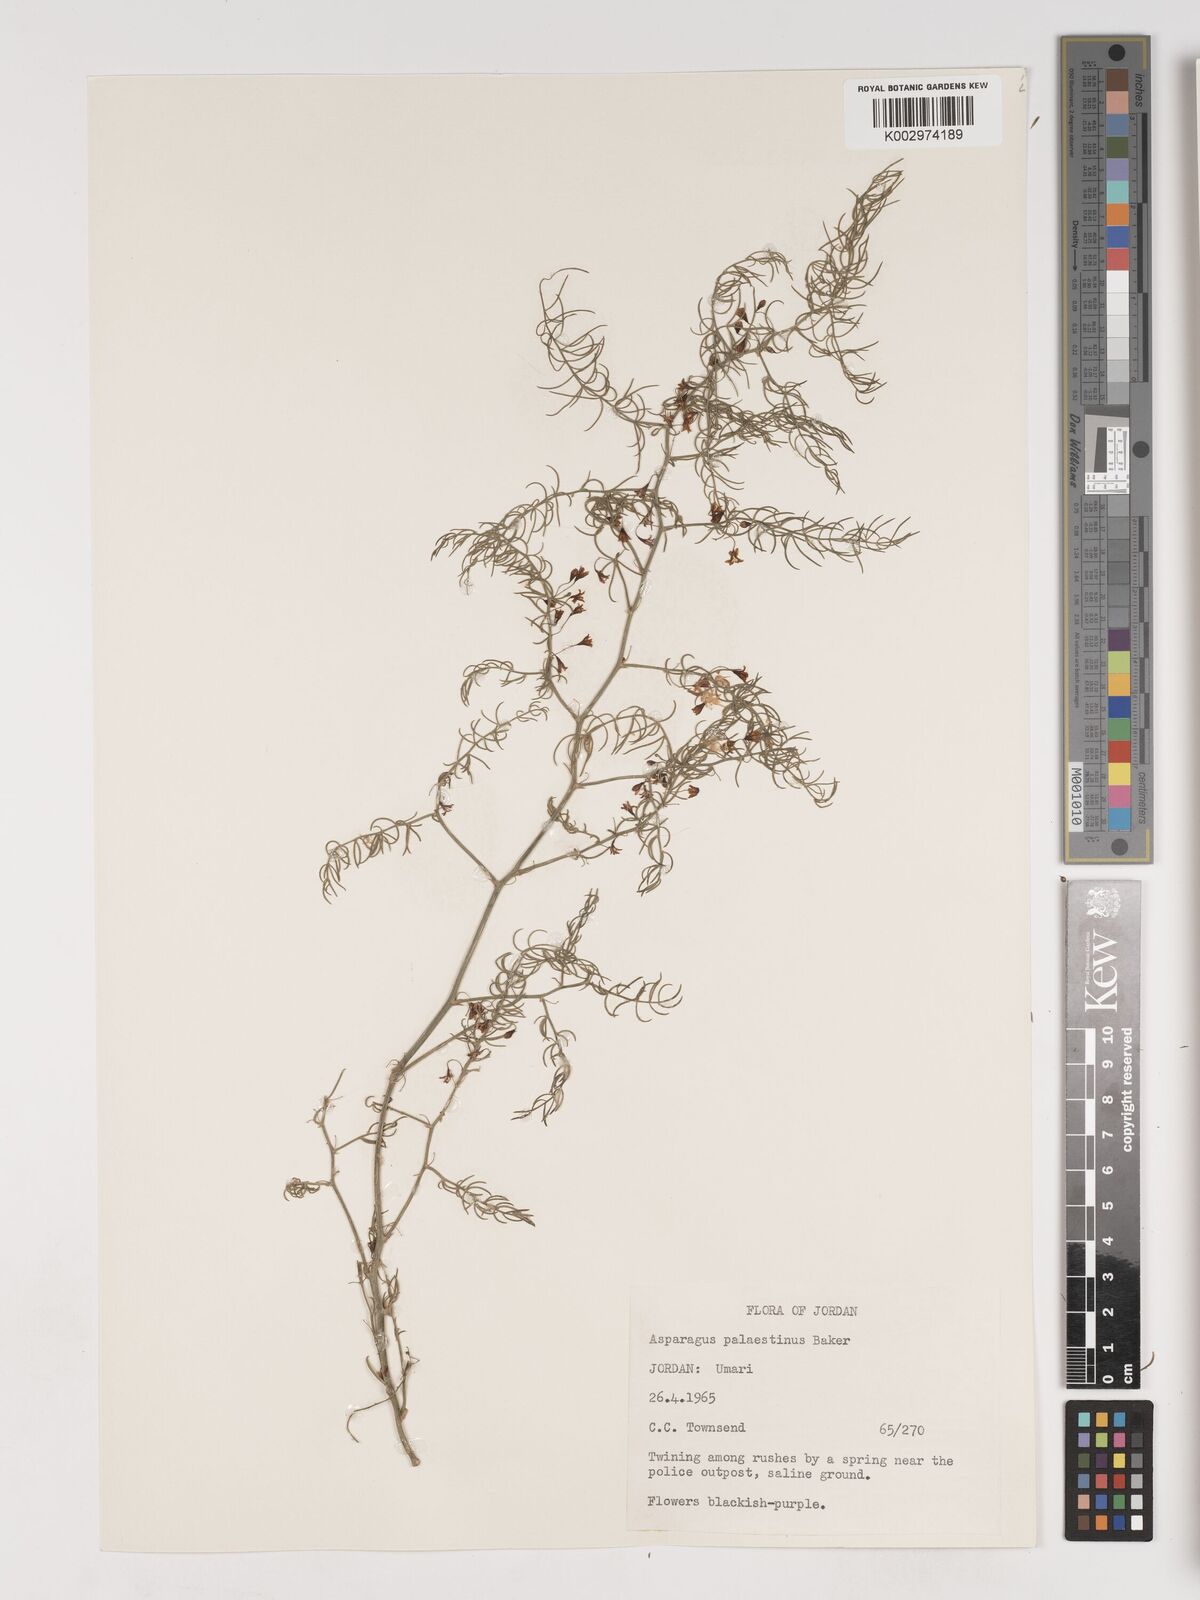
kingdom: Plantae
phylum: Tracheophyta
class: Liliopsida
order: Asparagales
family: Asparagaceae
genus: Asparagus
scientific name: Asparagus palaestinus
